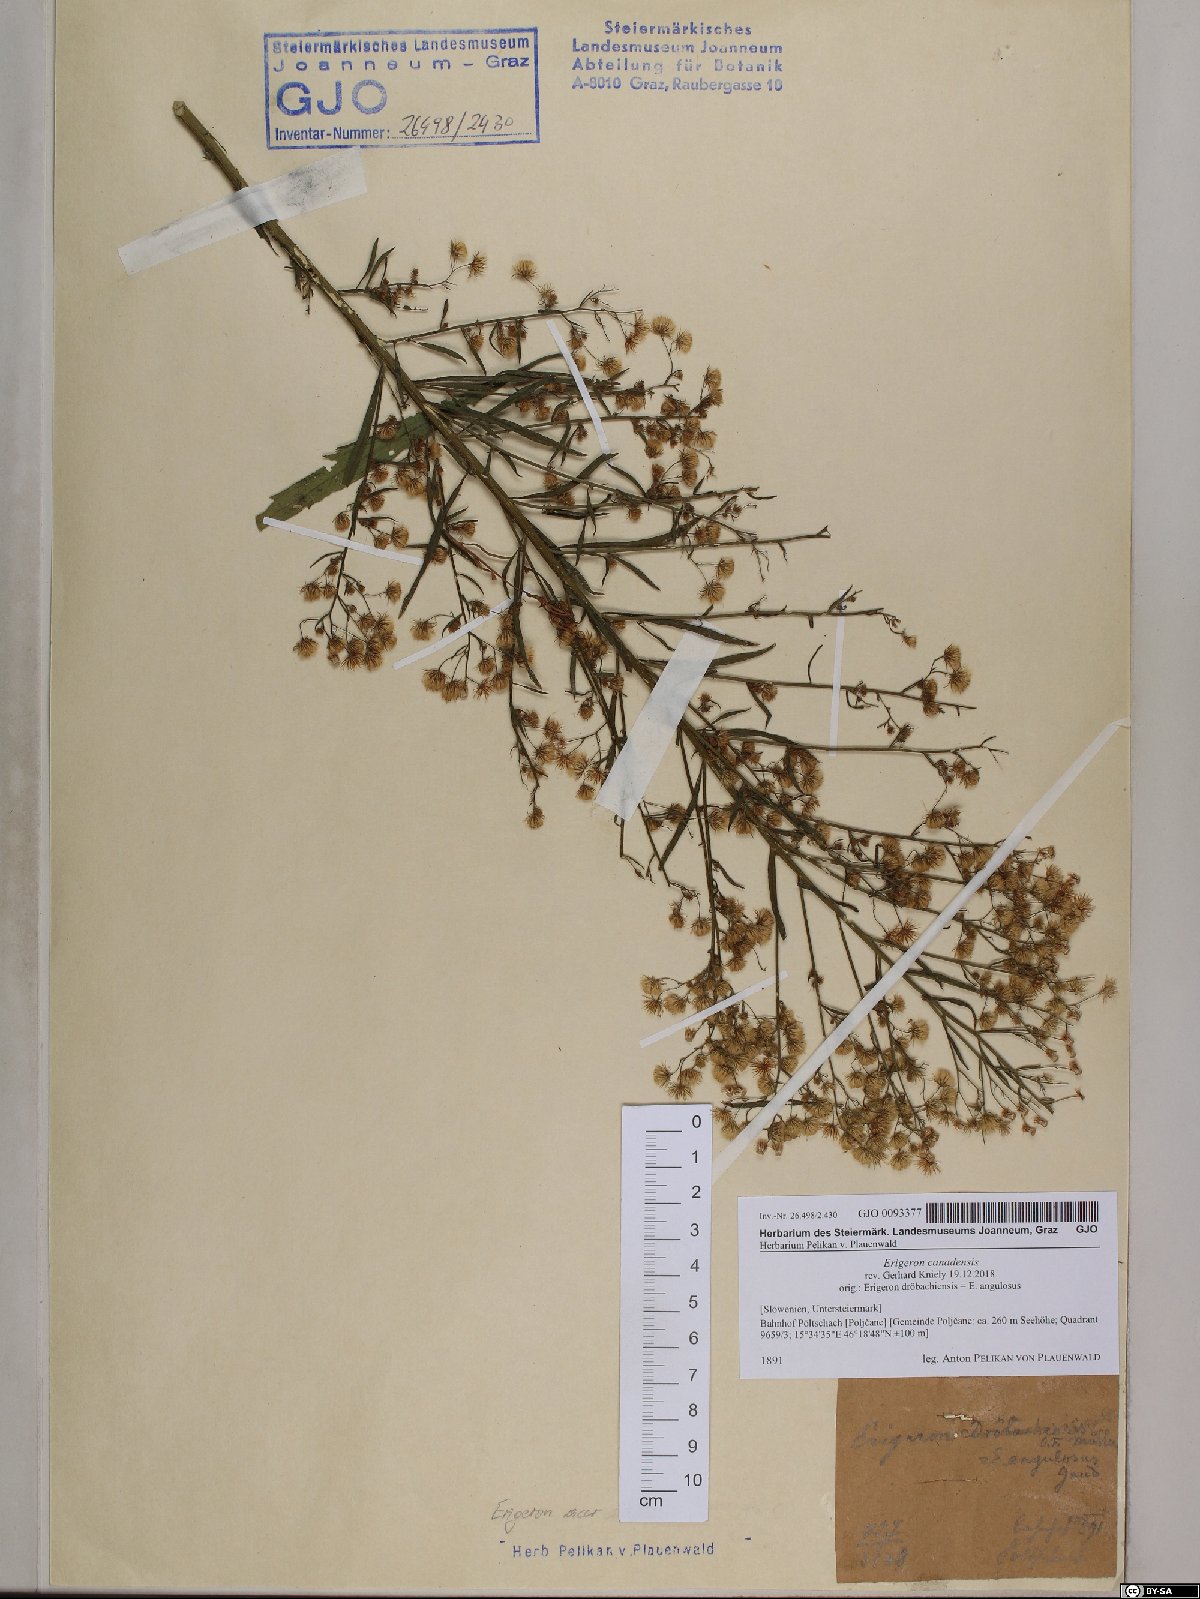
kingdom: Plantae
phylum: Tracheophyta
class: Magnoliopsida
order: Asterales
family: Asteraceae
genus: Erigeron
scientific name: Erigeron canadensis
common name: Canadian fleabane
